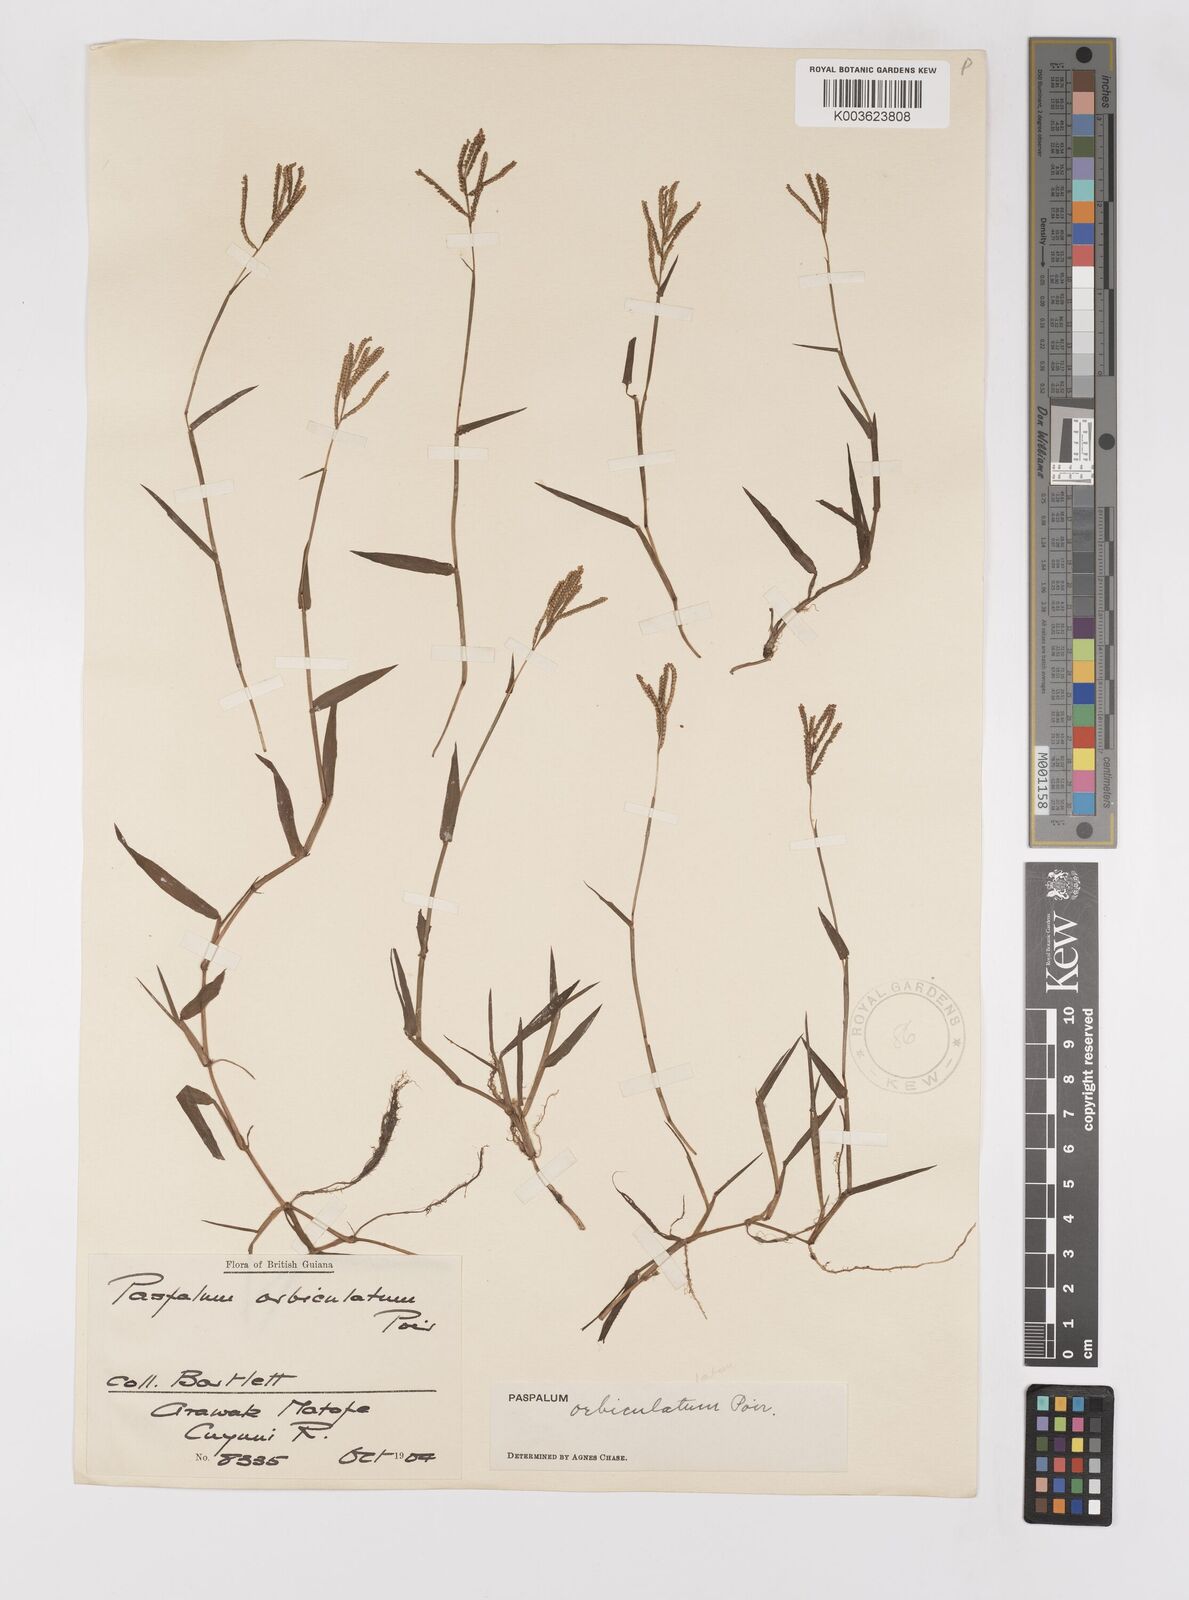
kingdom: Plantae
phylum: Tracheophyta
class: Liliopsida
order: Poales
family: Poaceae
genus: Paspalum
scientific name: Paspalum orbiculatum
